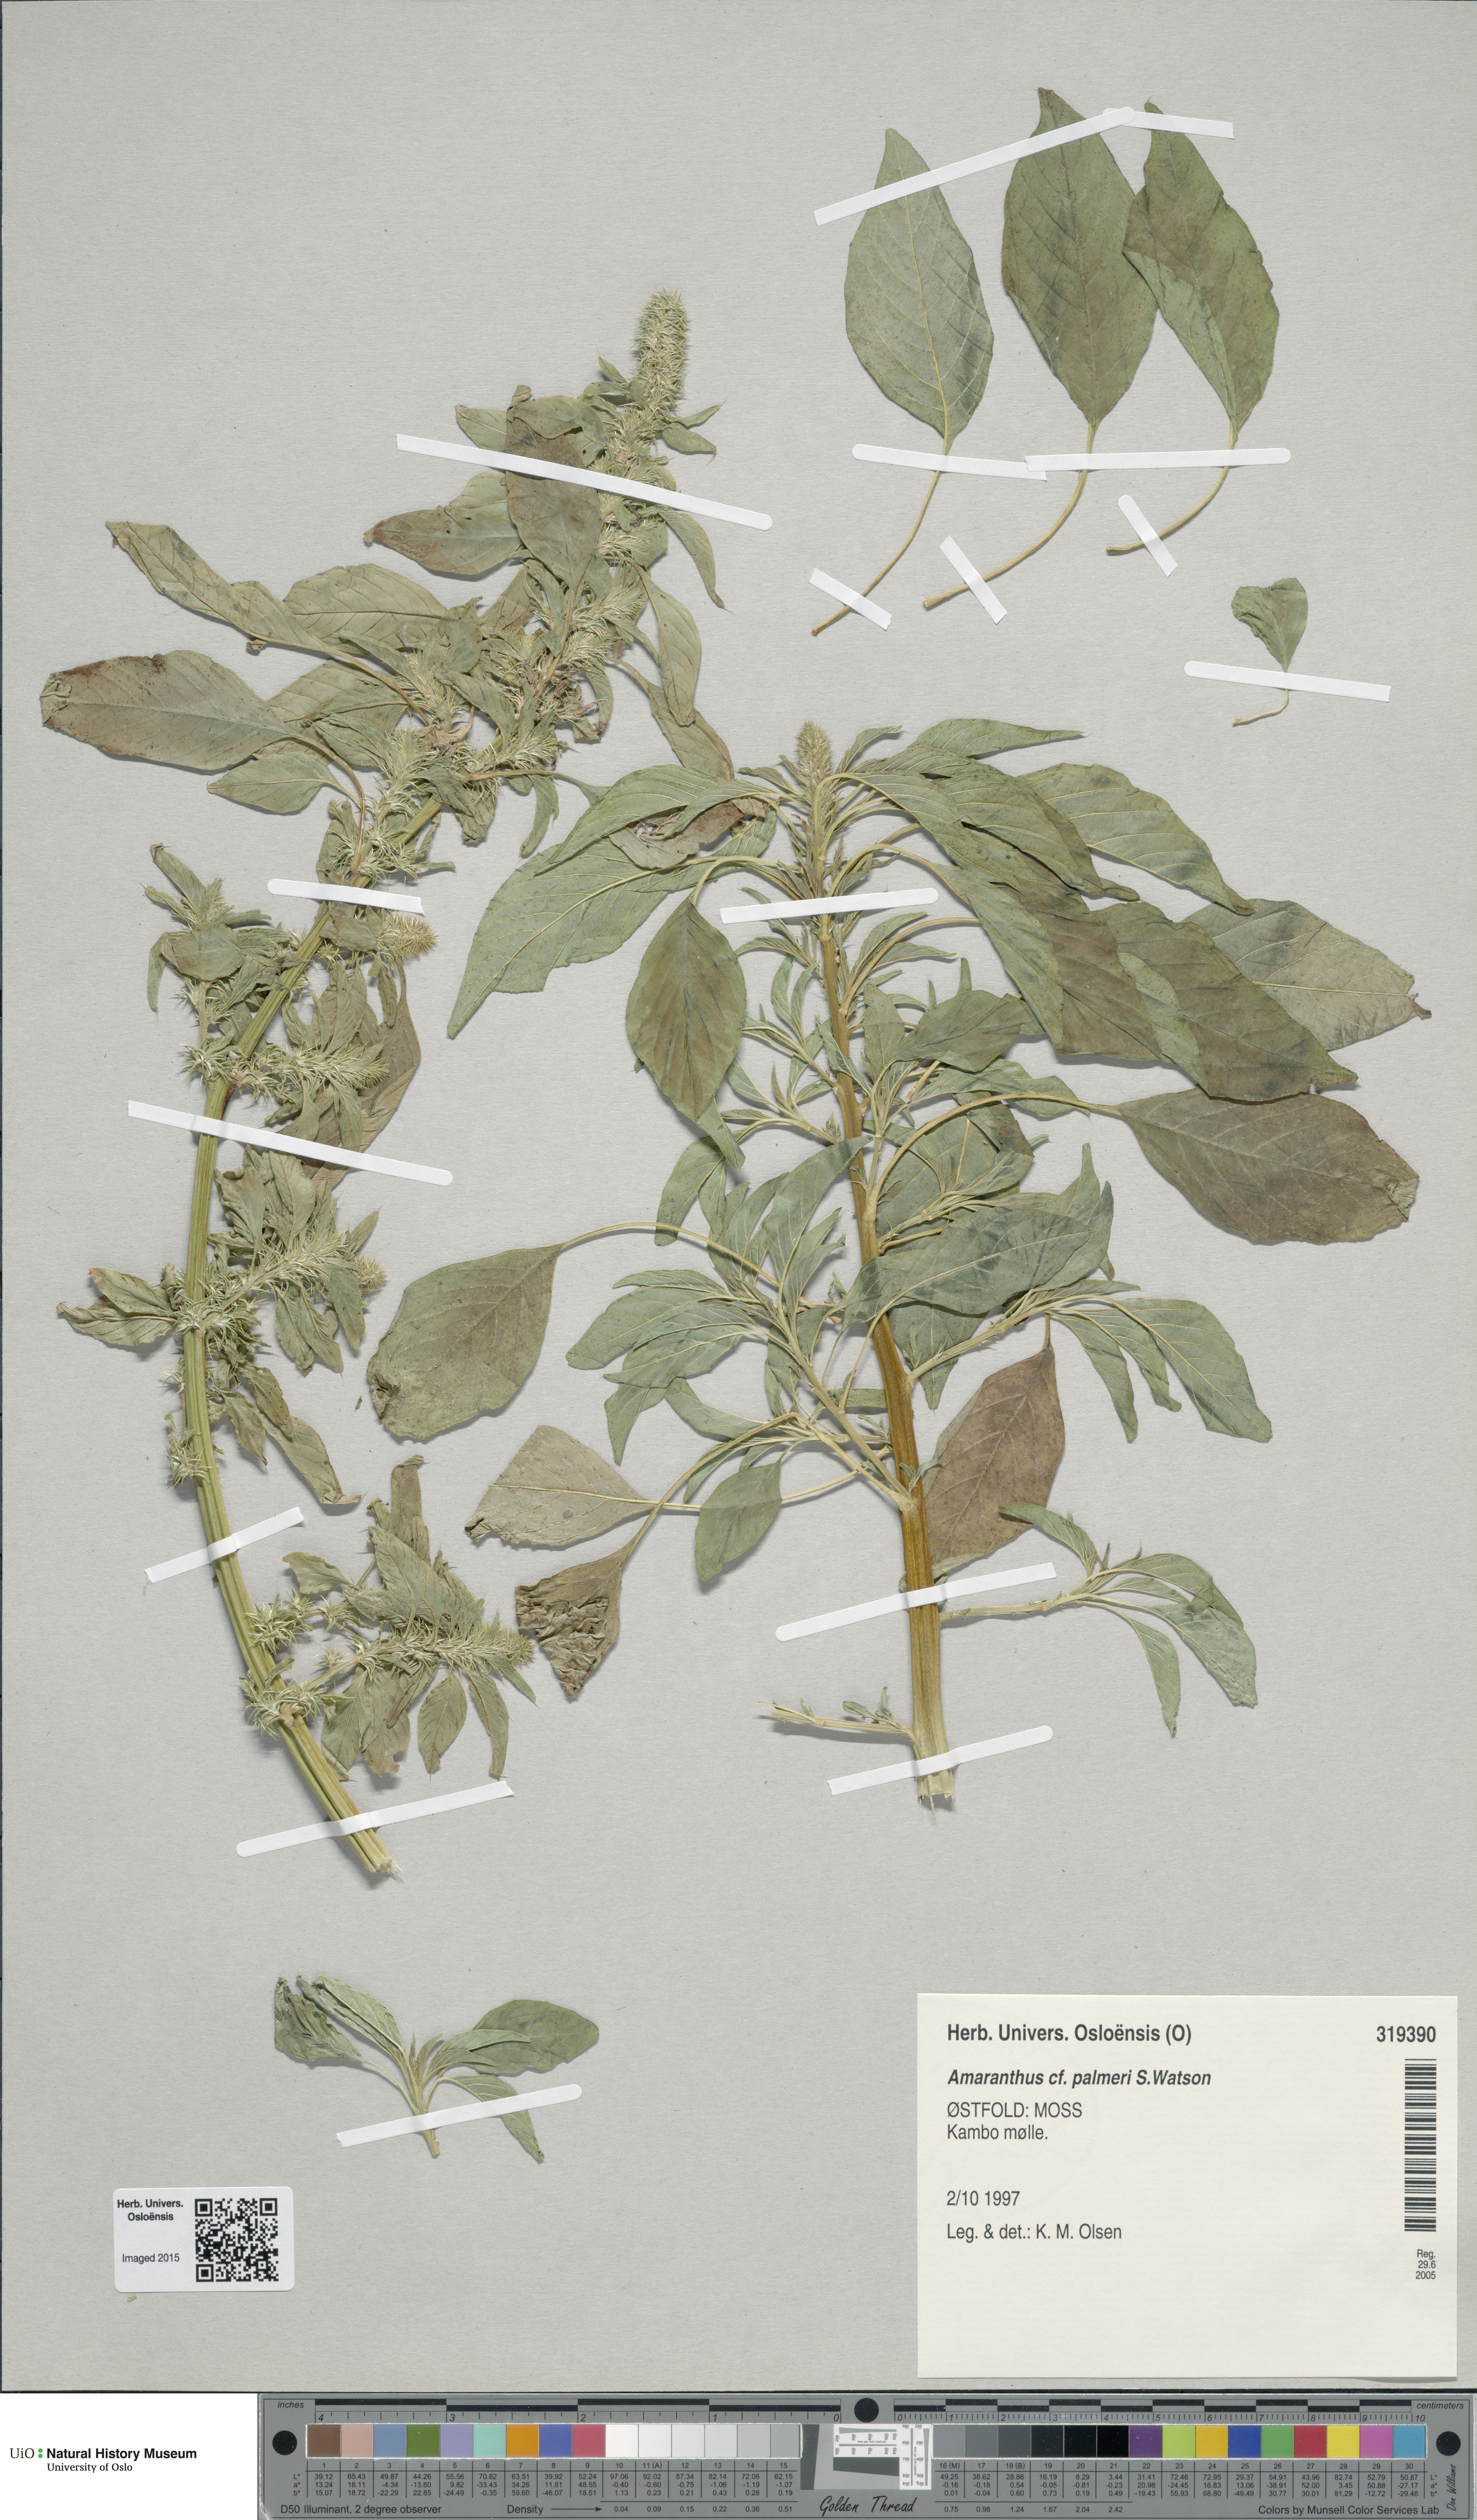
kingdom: Plantae
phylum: Tracheophyta
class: Magnoliopsida
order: Caryophyllales
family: Amaranthaceae
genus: Amaranthus
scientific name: Amaranthus palmeri
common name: Dioecious amaranth
